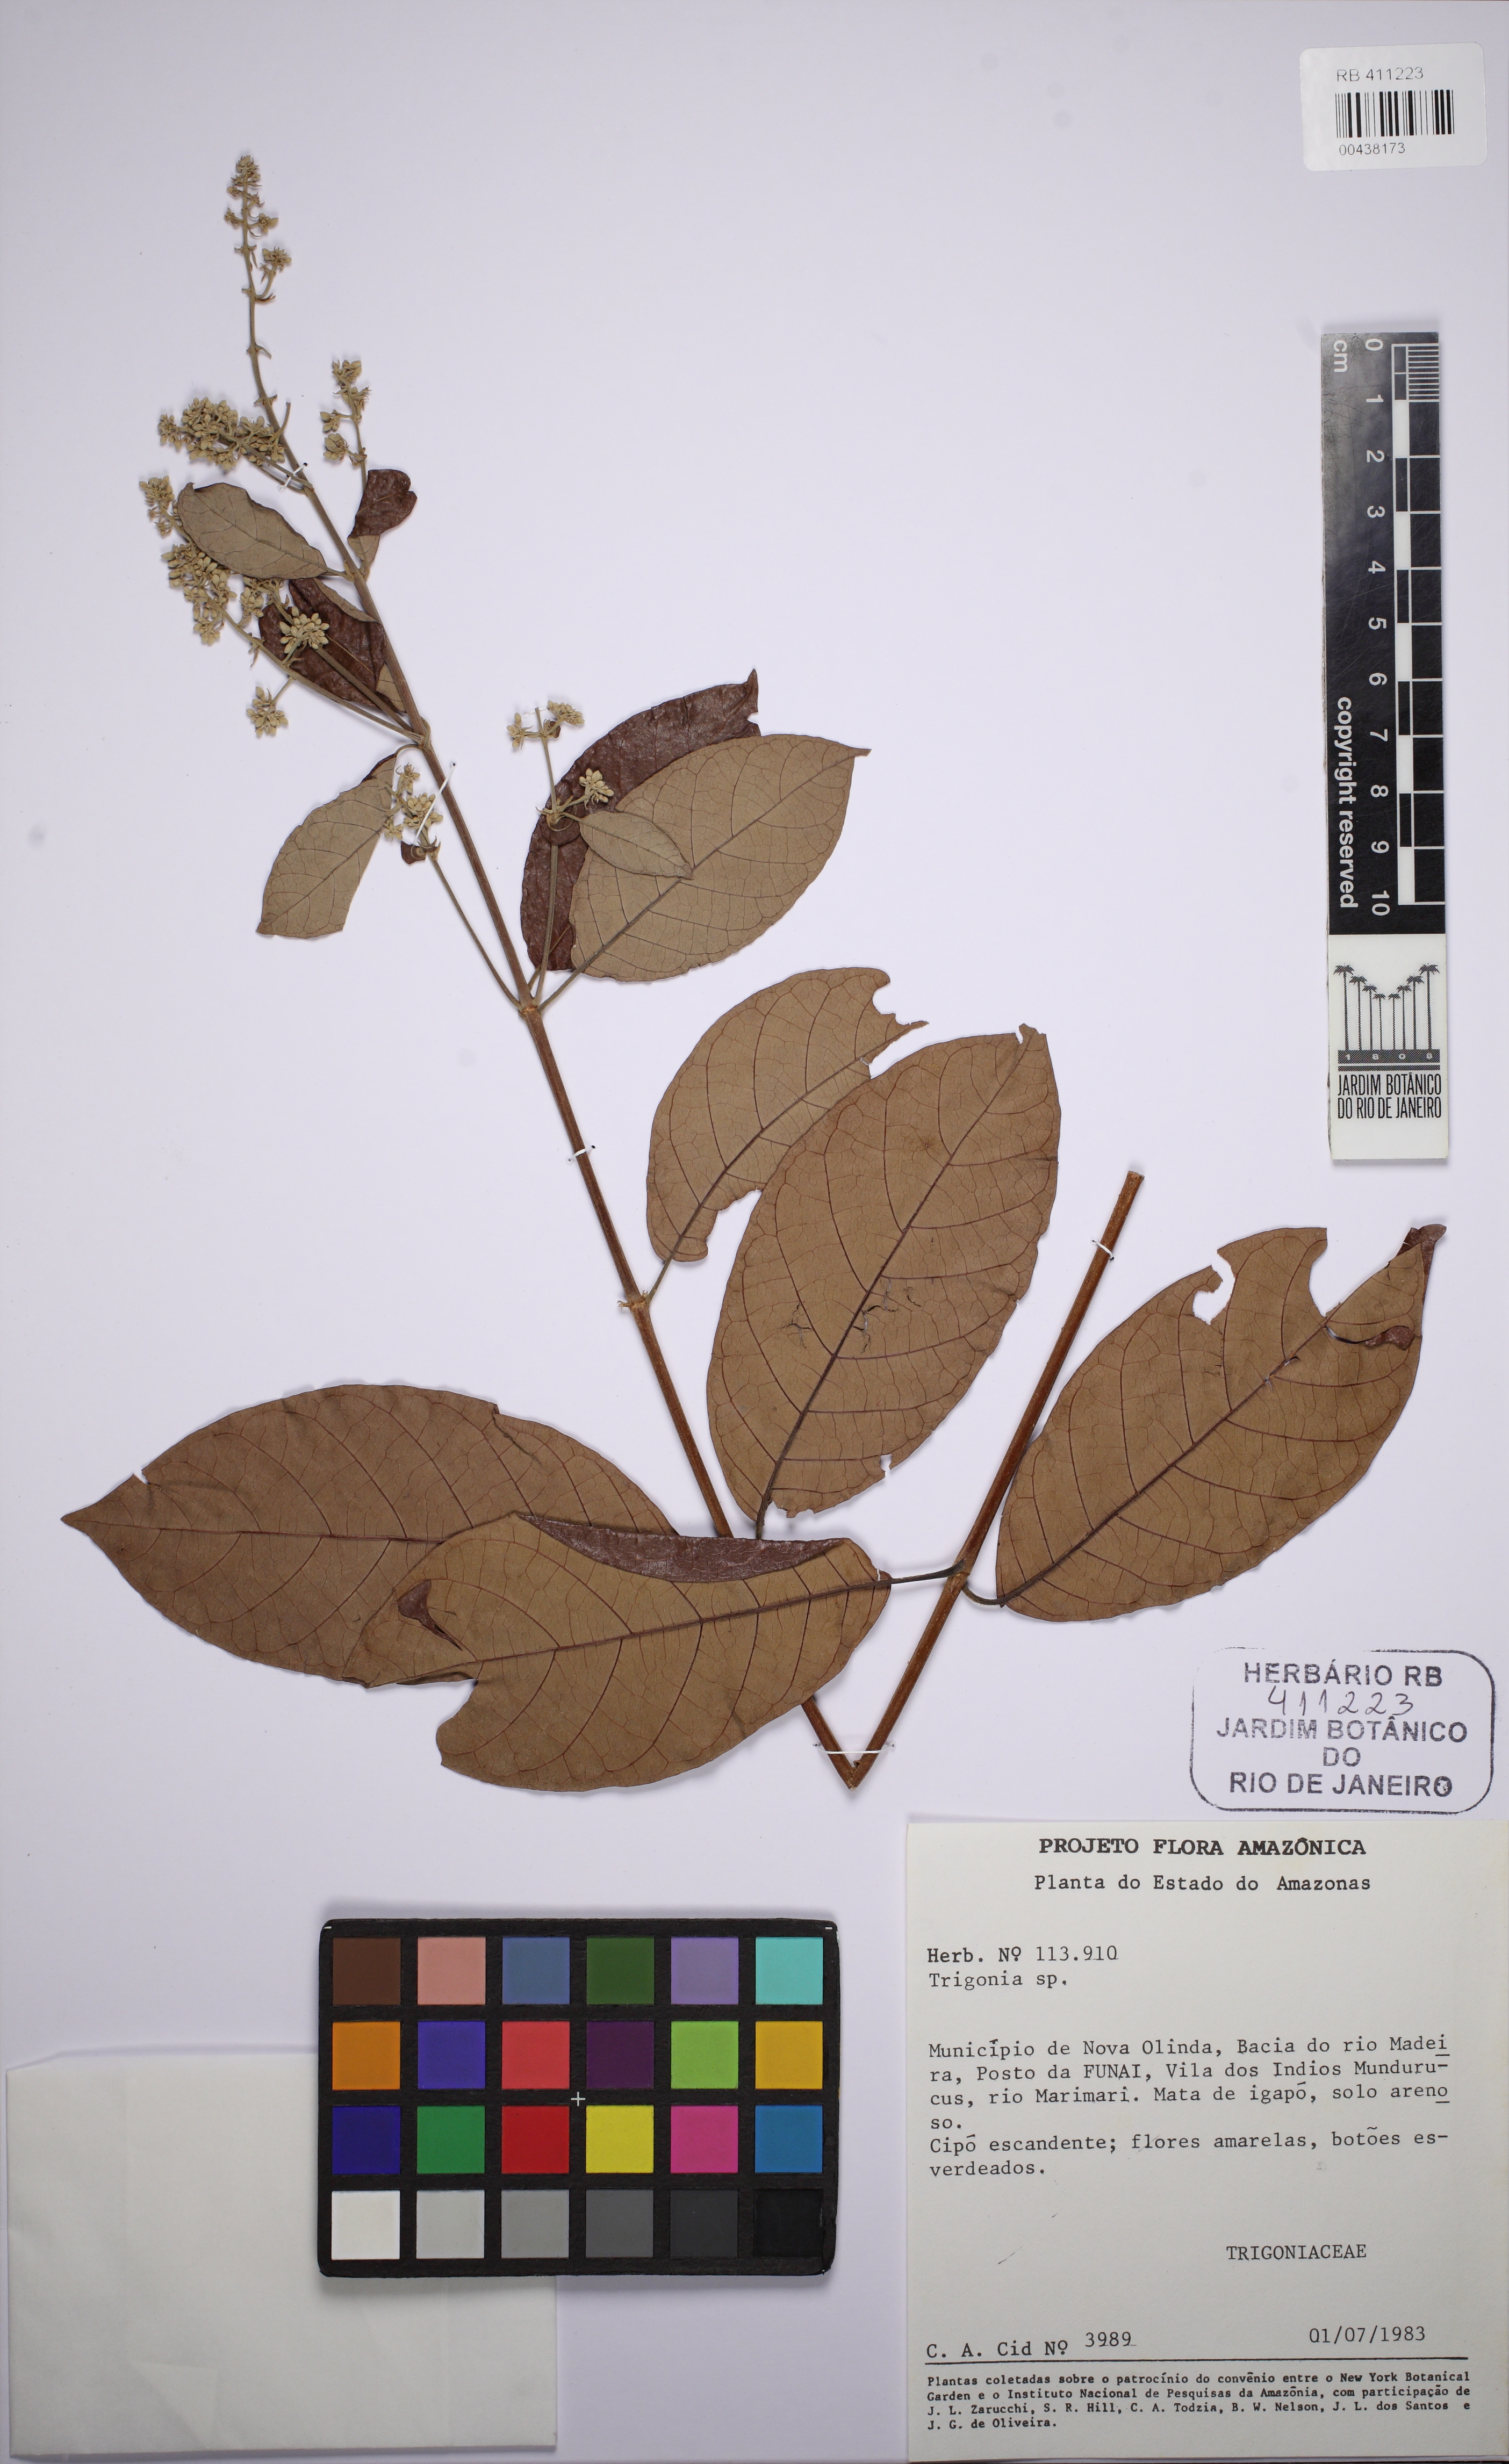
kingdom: Plantae
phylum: Tracheophyta
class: Magnoliopsida
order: Malpighiales
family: Trigoniaceae
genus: Trigonia
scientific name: Trigonia
